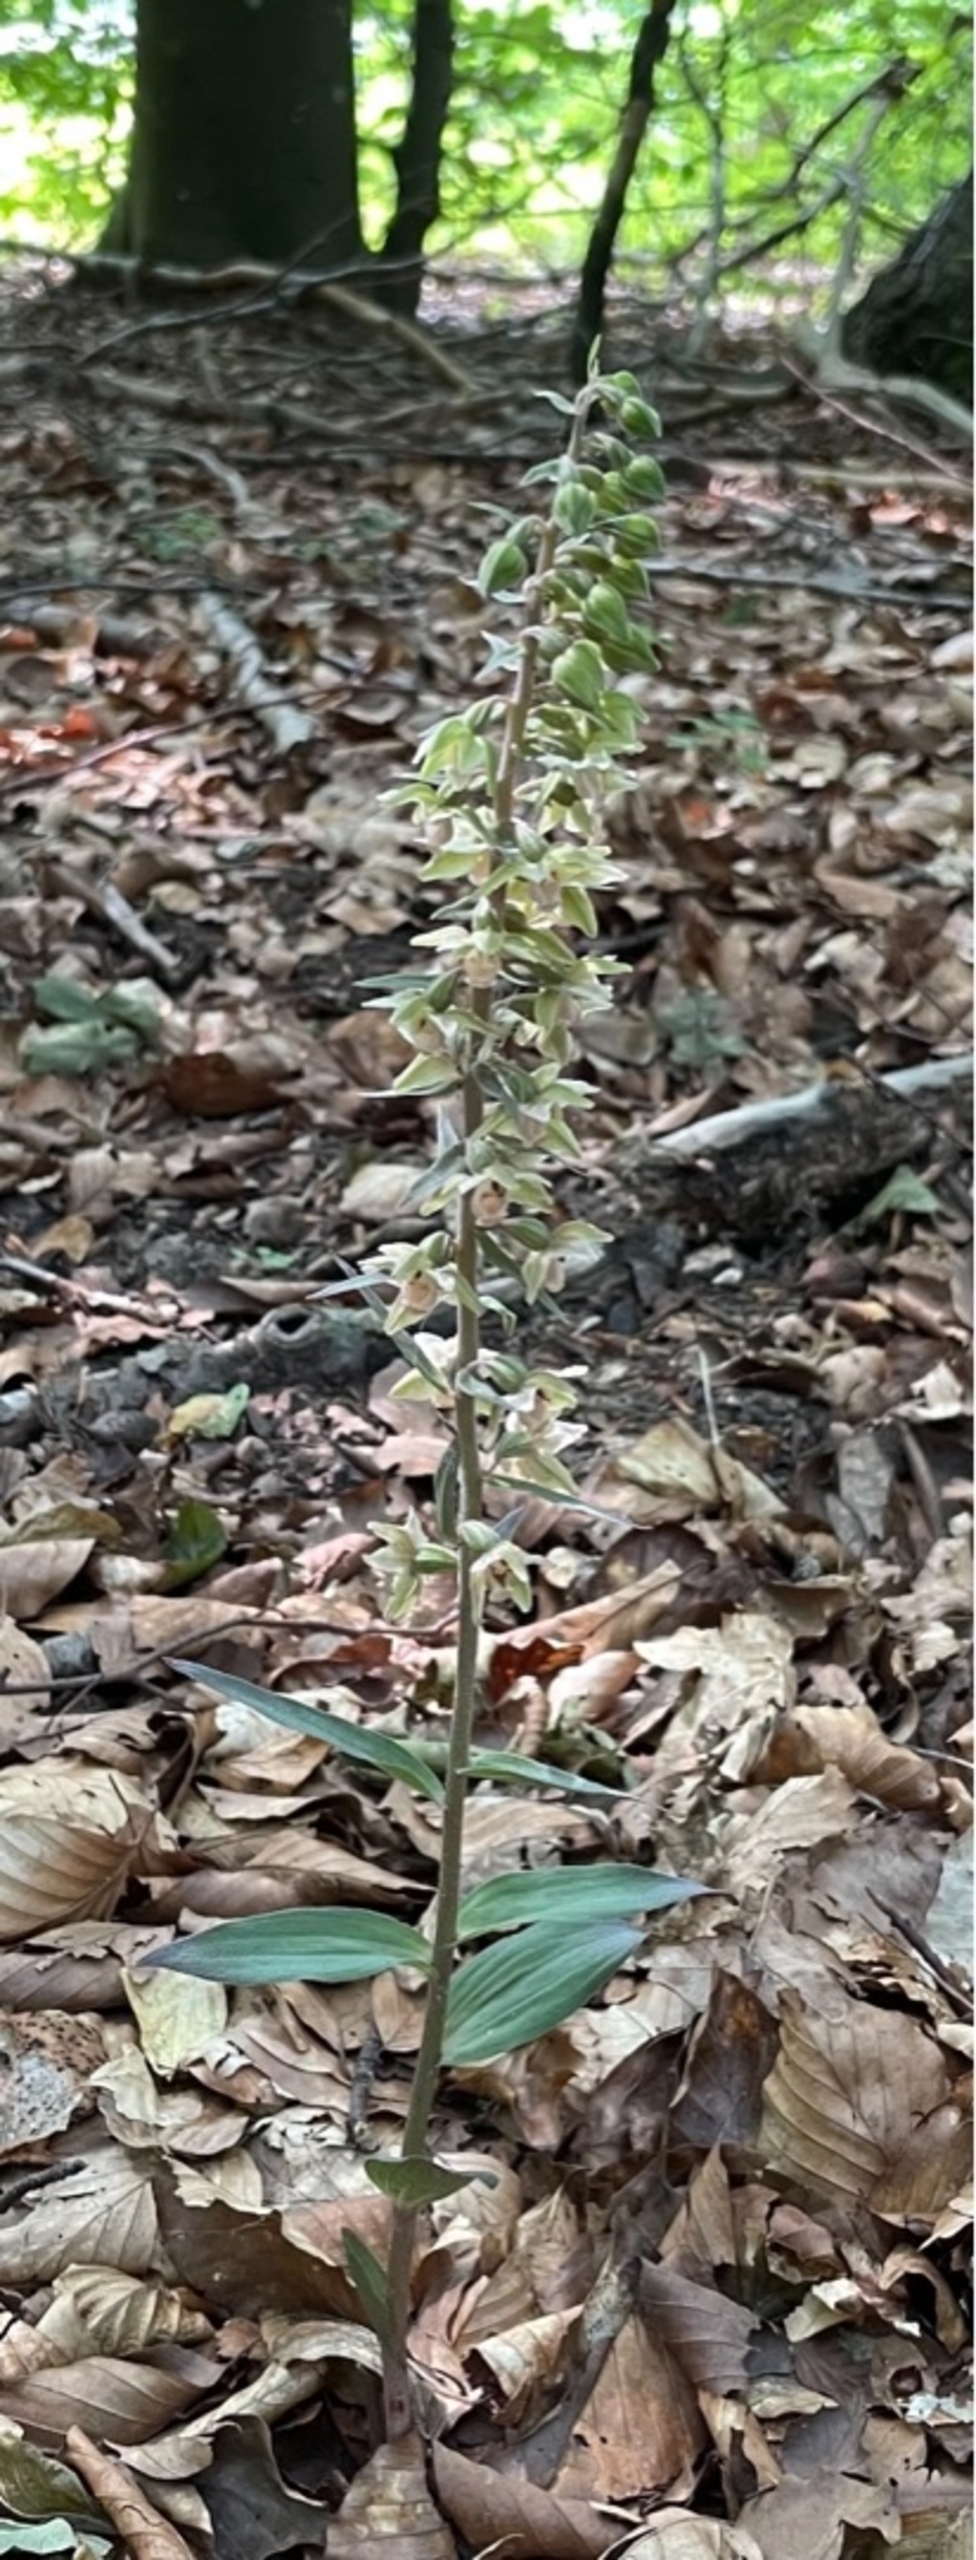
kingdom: Plantae
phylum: Tracheophyta
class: Liliopsida
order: Asparagales
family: Orchidaceae
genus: Epipactis
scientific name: Epipactis purpurata
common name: Tætblomstret hullæbe
